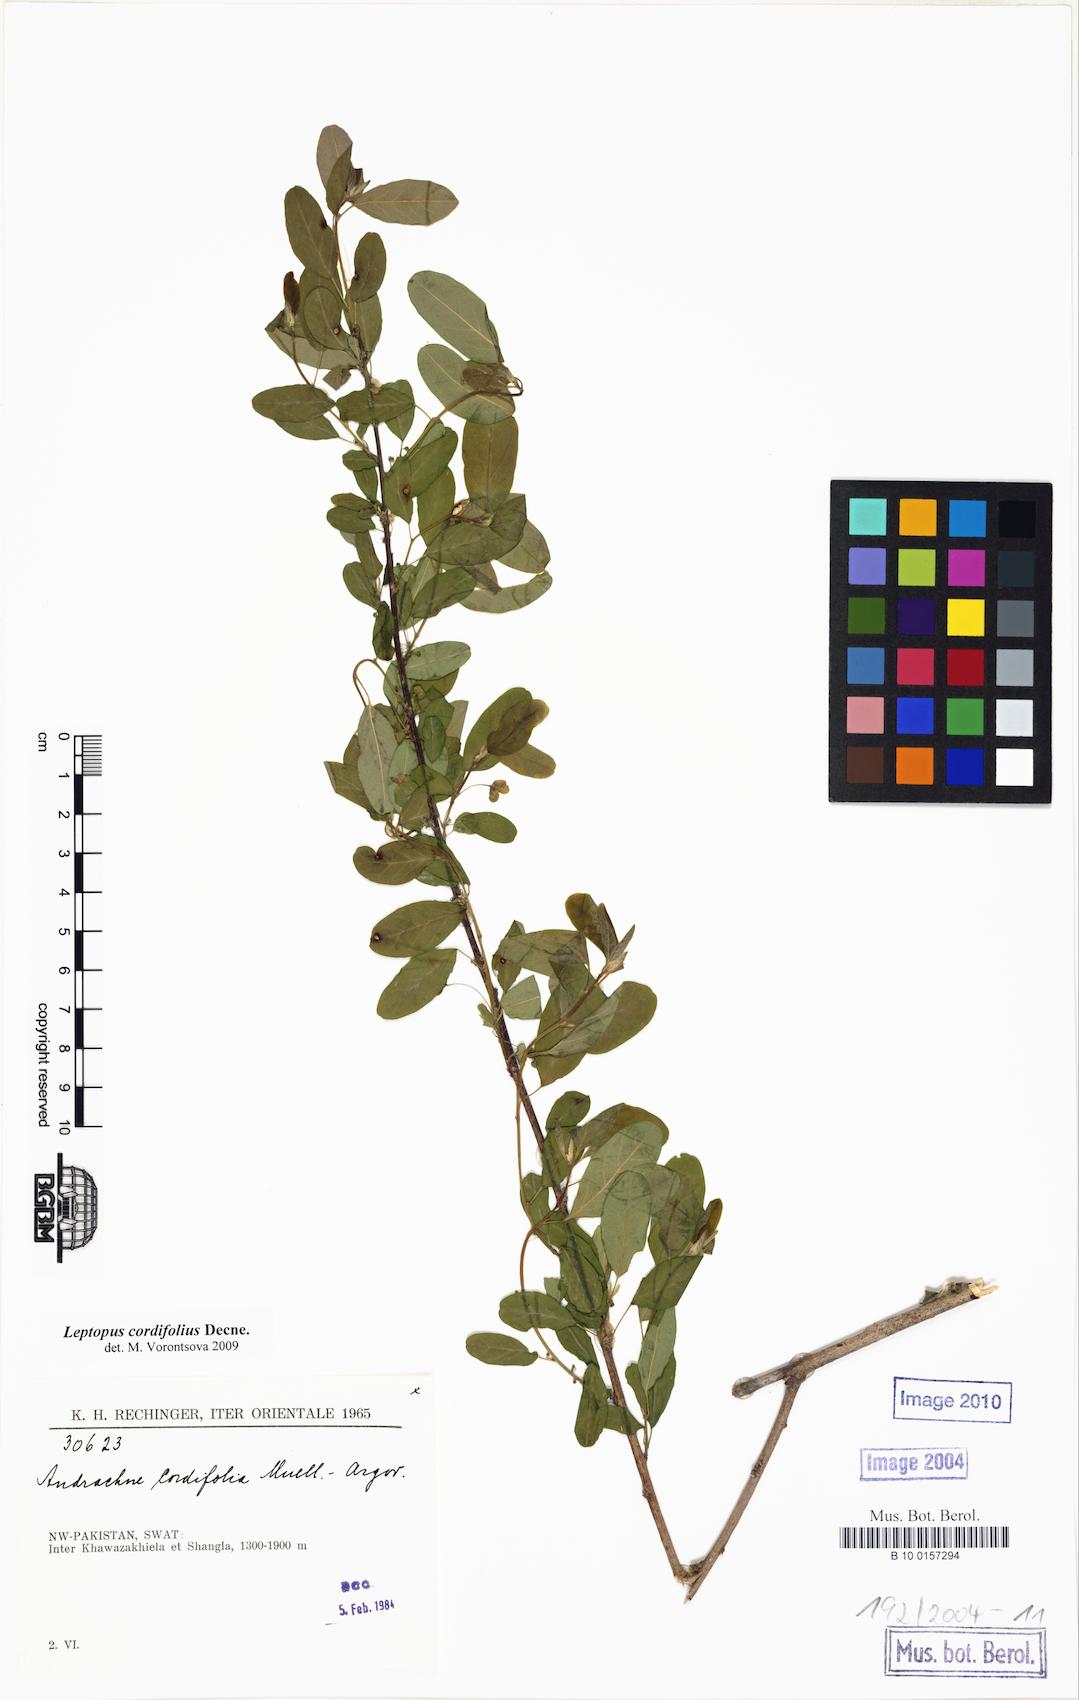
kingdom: Plantae
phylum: Tracheophyta
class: Magnoliopsida
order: Malpighiales
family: Phyllanthaceae
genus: Leptopus
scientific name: Leptopus cordifolius
